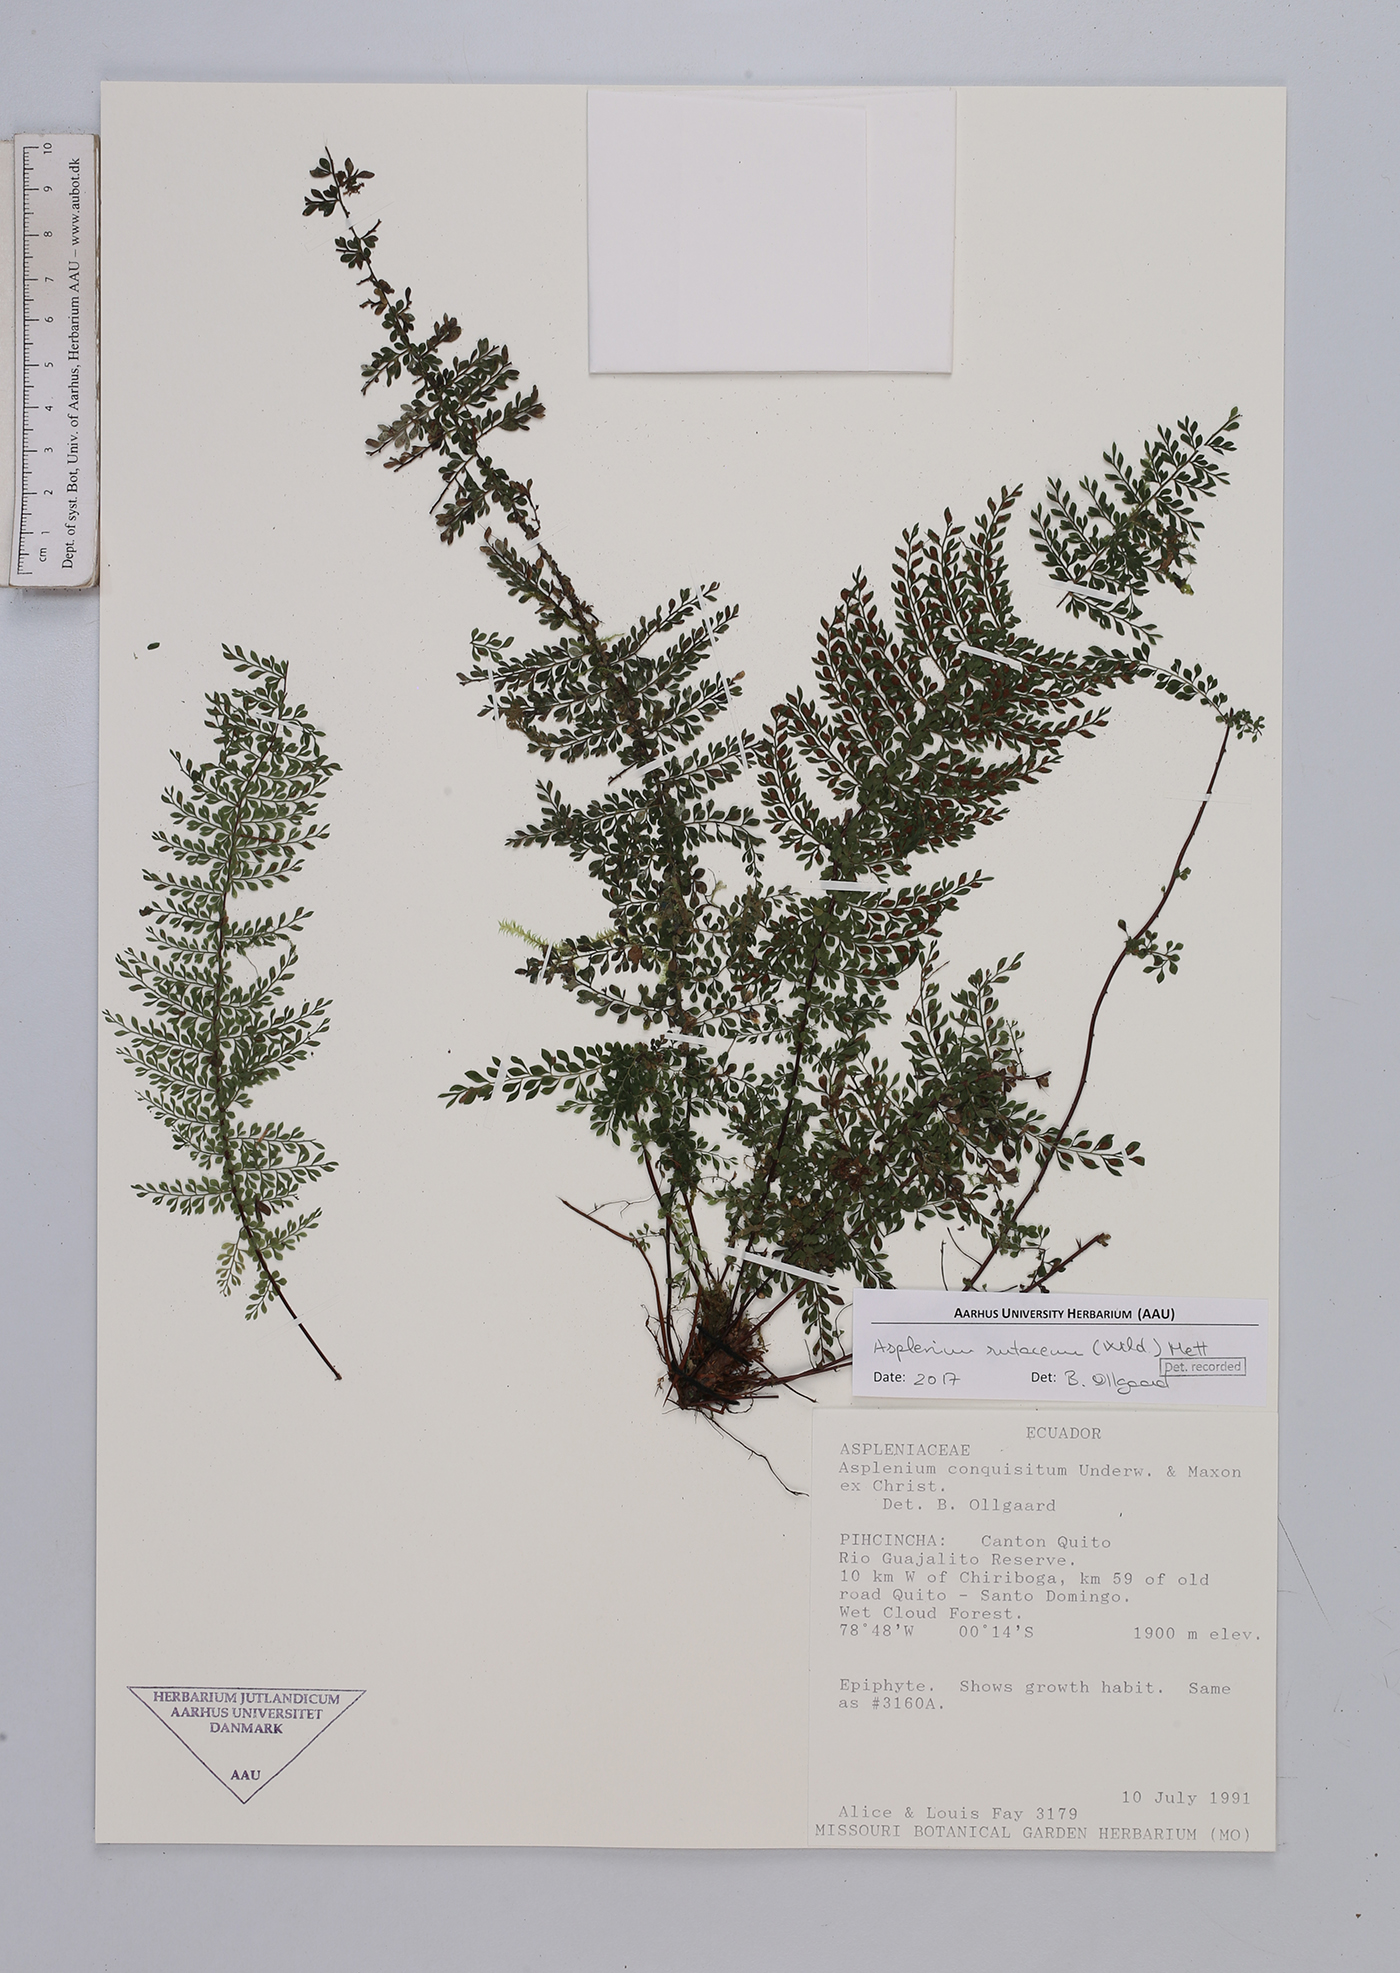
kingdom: Plantae
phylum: Tracheophyta
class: Polypodiopsida
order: Polypodiales
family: Aspleniaceae
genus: Asplenium
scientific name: Asplenium rutaceum
